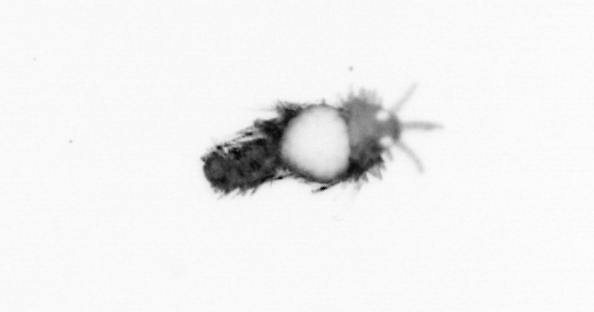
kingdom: Animalia
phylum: Annelida
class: Polychaeta
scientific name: Polychaeta
